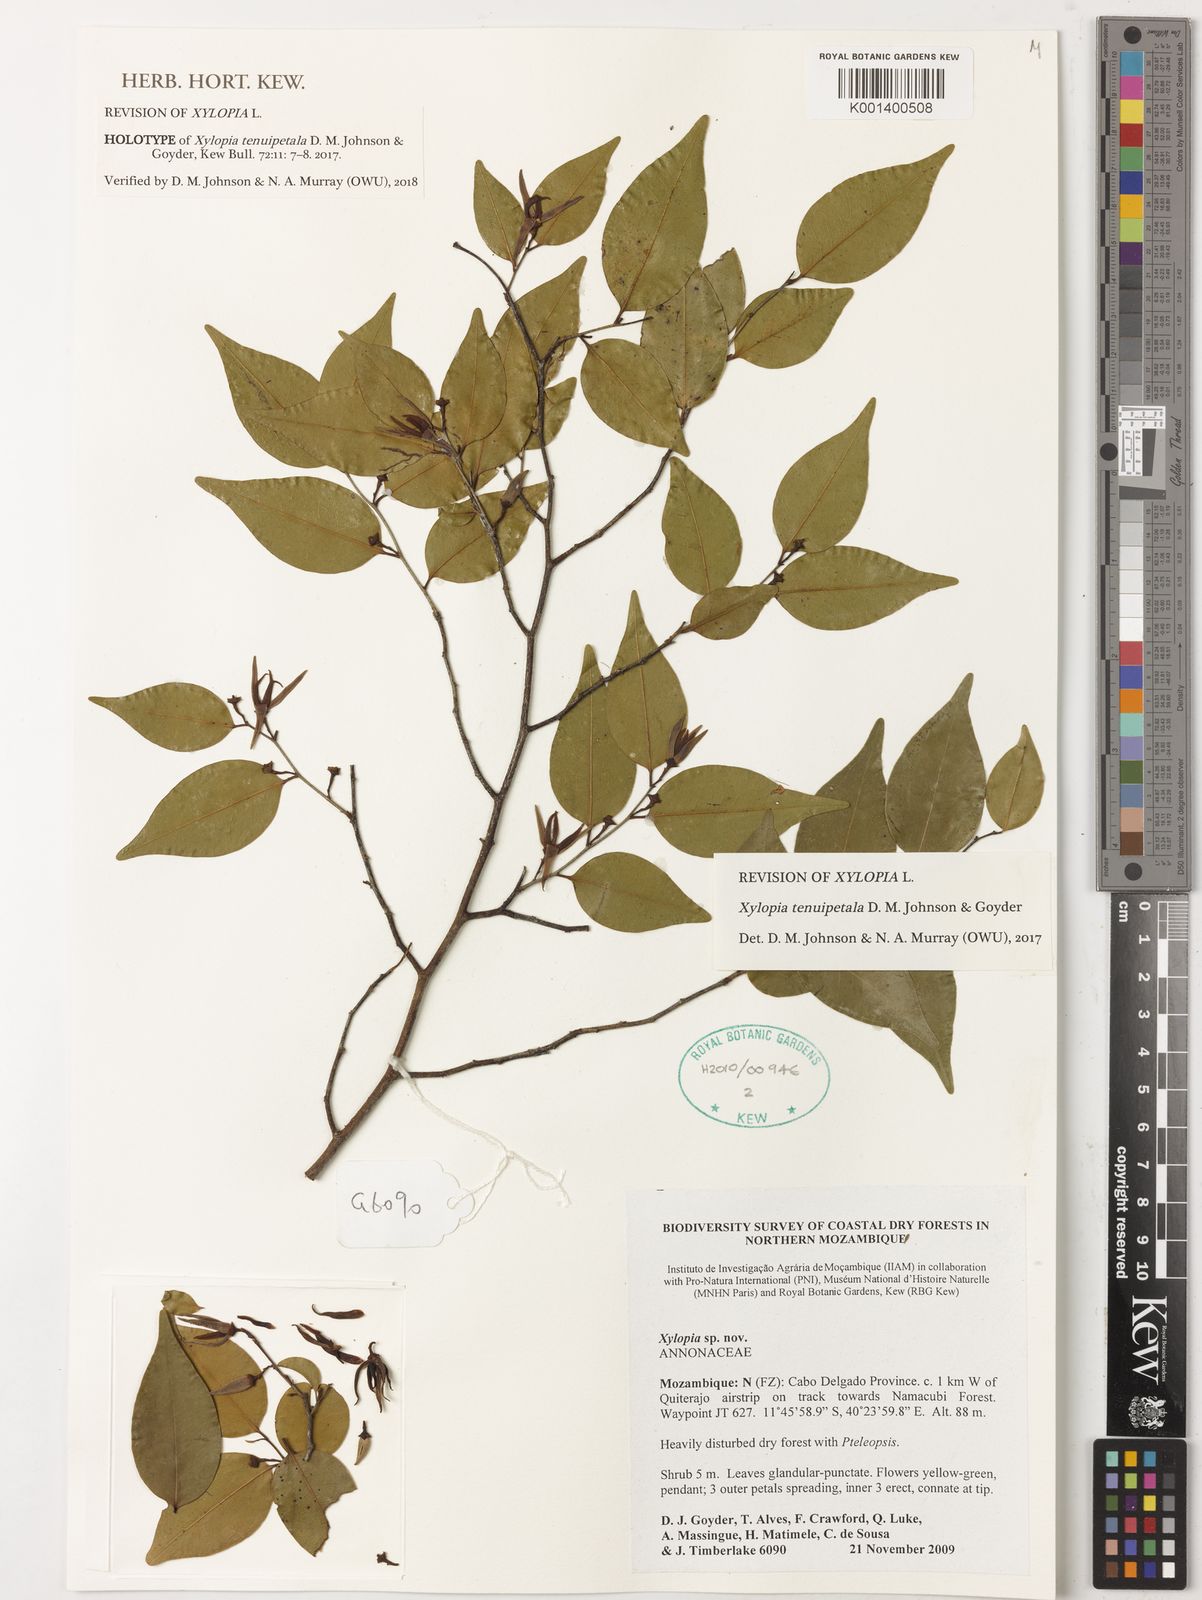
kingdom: Plantae
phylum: Tracheophyta
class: Magnoliopsida
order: Magnoliales
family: Annonaceae
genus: Xylopia
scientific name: Xylopia tenuipetala
